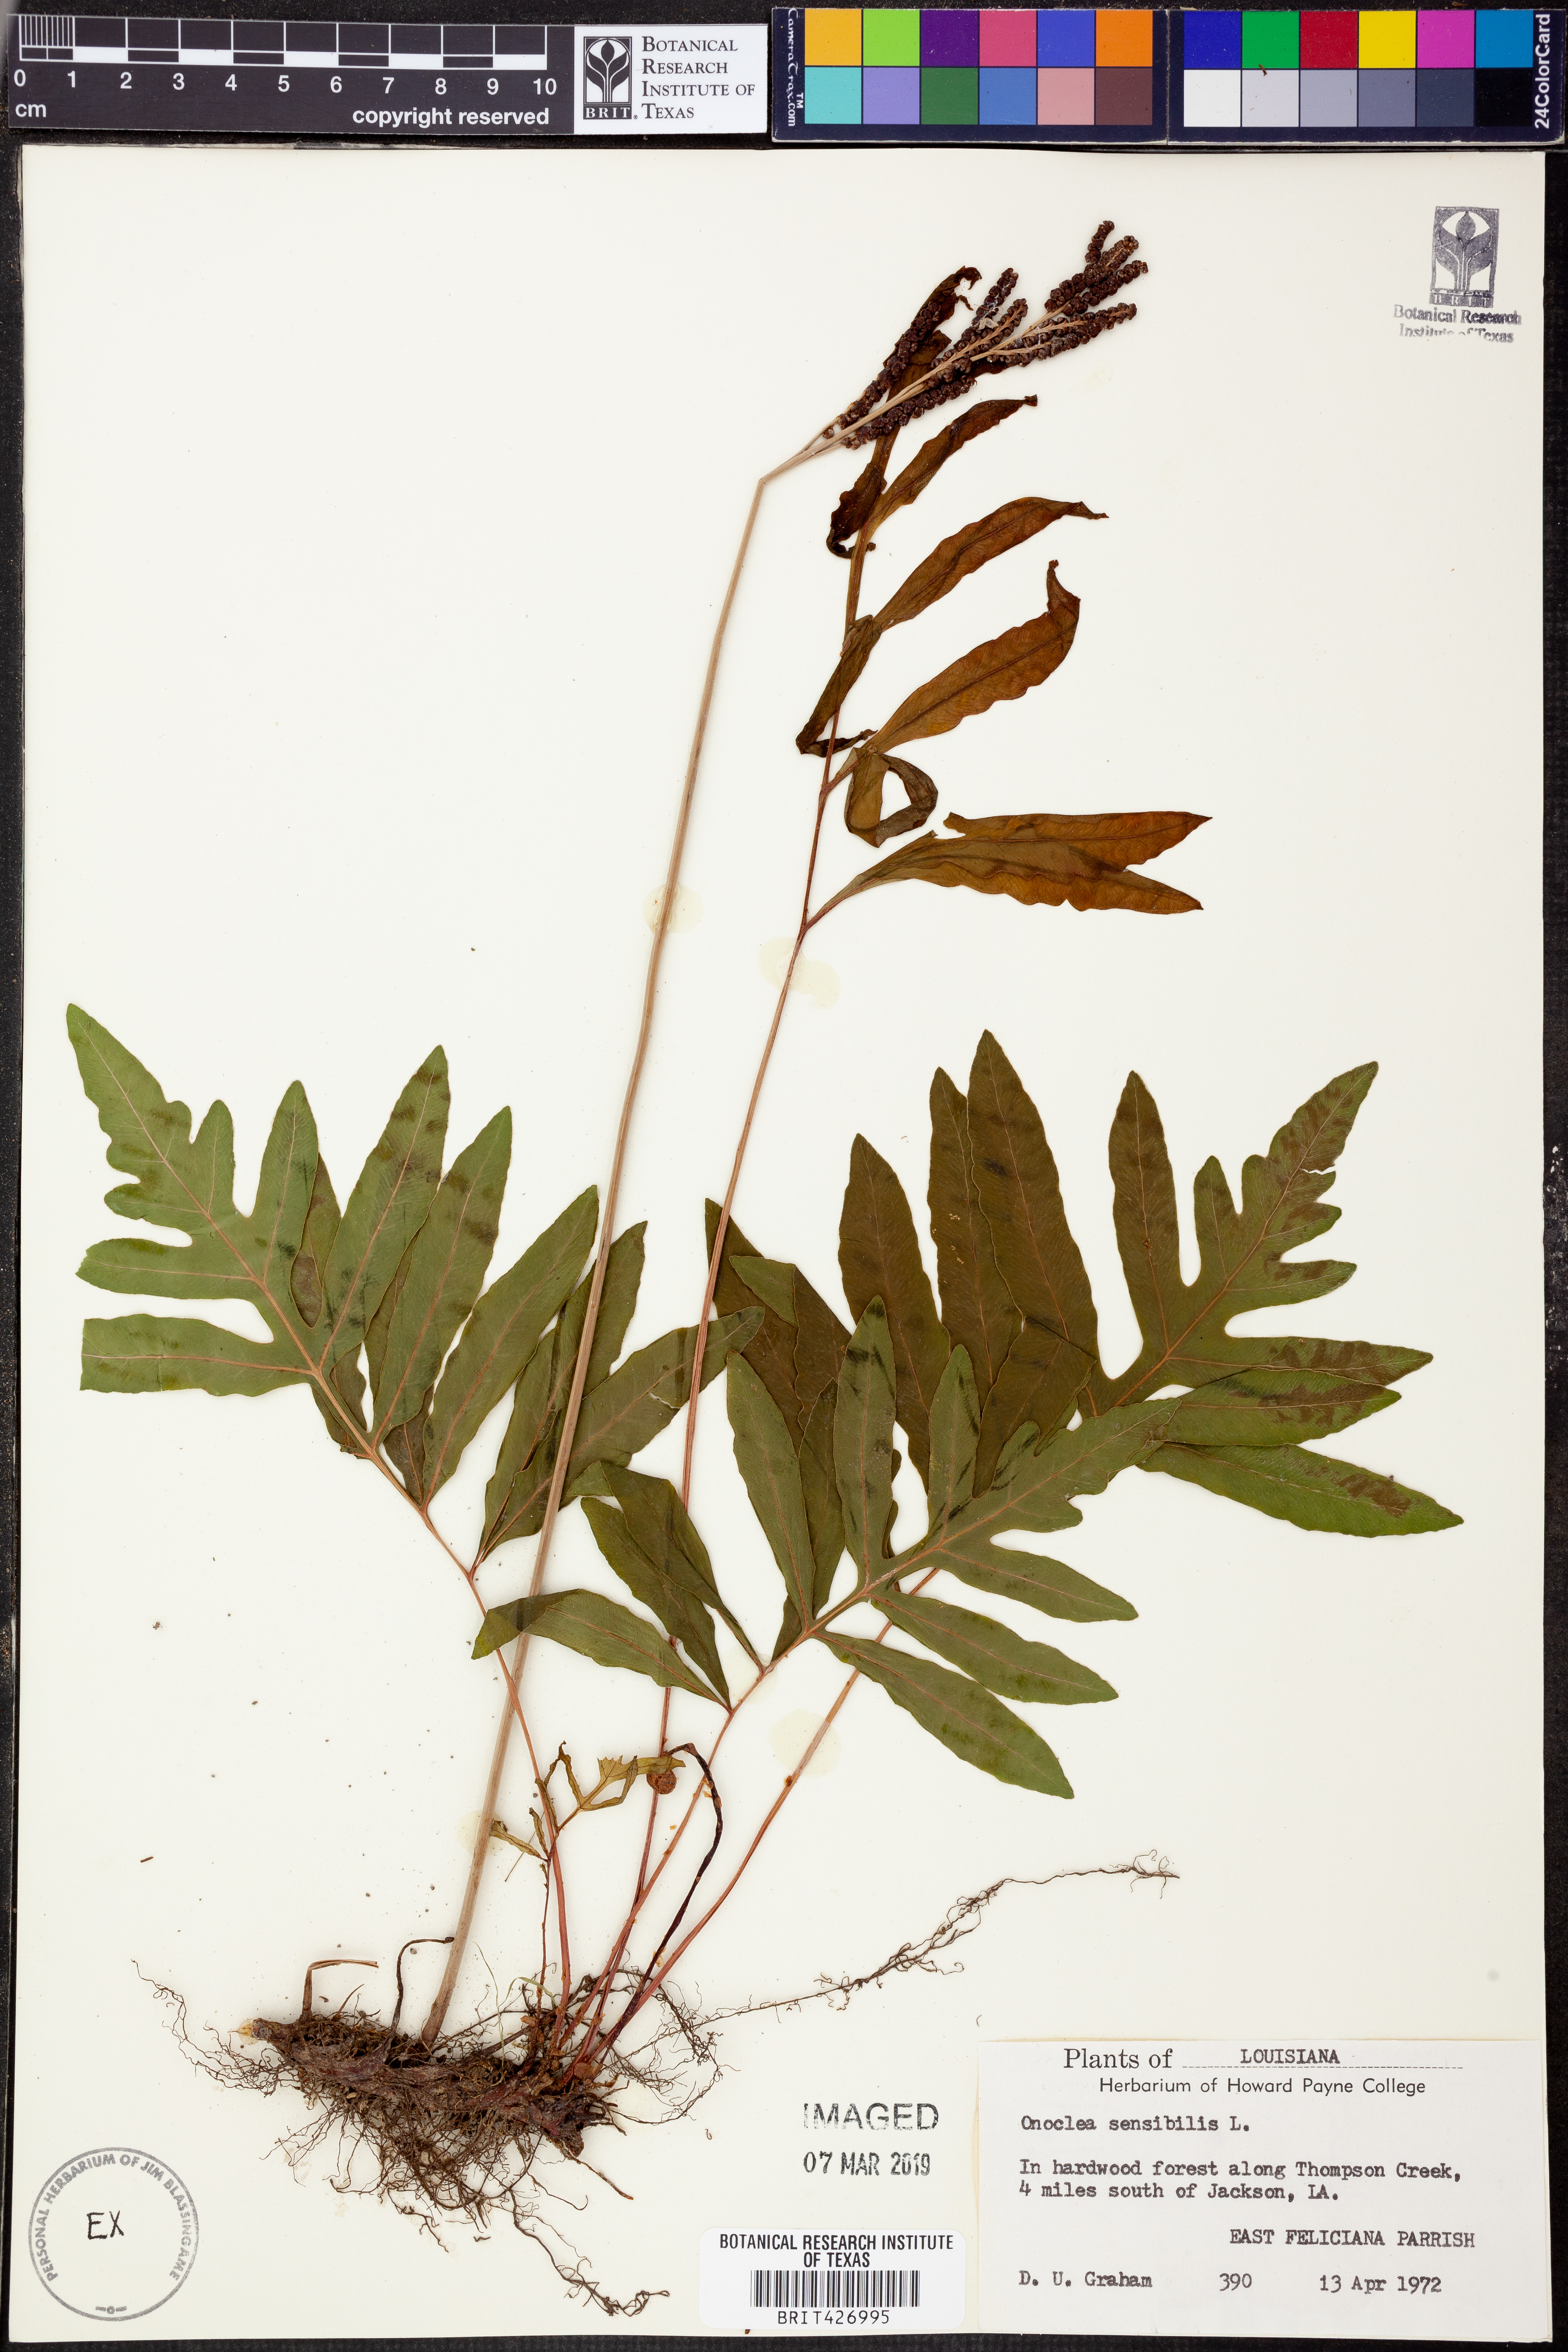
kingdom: Plantae
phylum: Tracheophyta
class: Polypodiopsida
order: Polypodiales
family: Onocleaceae
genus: Onoclea
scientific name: Onoclea sensibilis
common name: Sensitive fern
